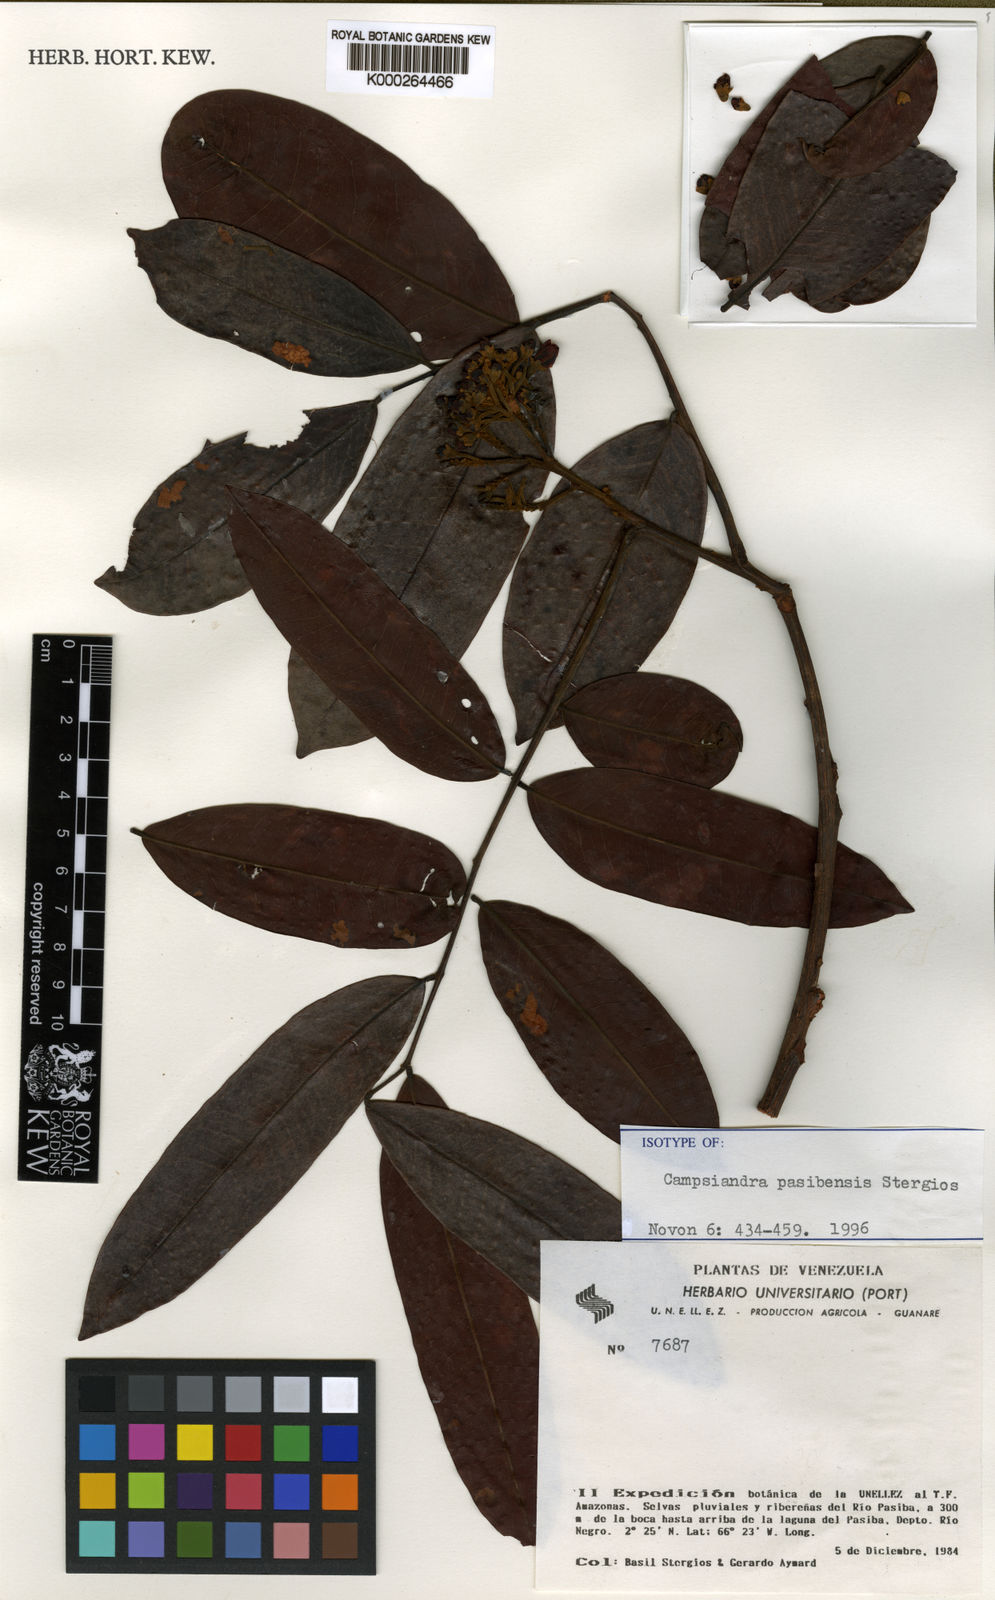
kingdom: Plantae
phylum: Tracheophyta
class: Magnoliopsida
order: Fabales
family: Fabaceae
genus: Campsiandra
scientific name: Campsiandra pasibensis
